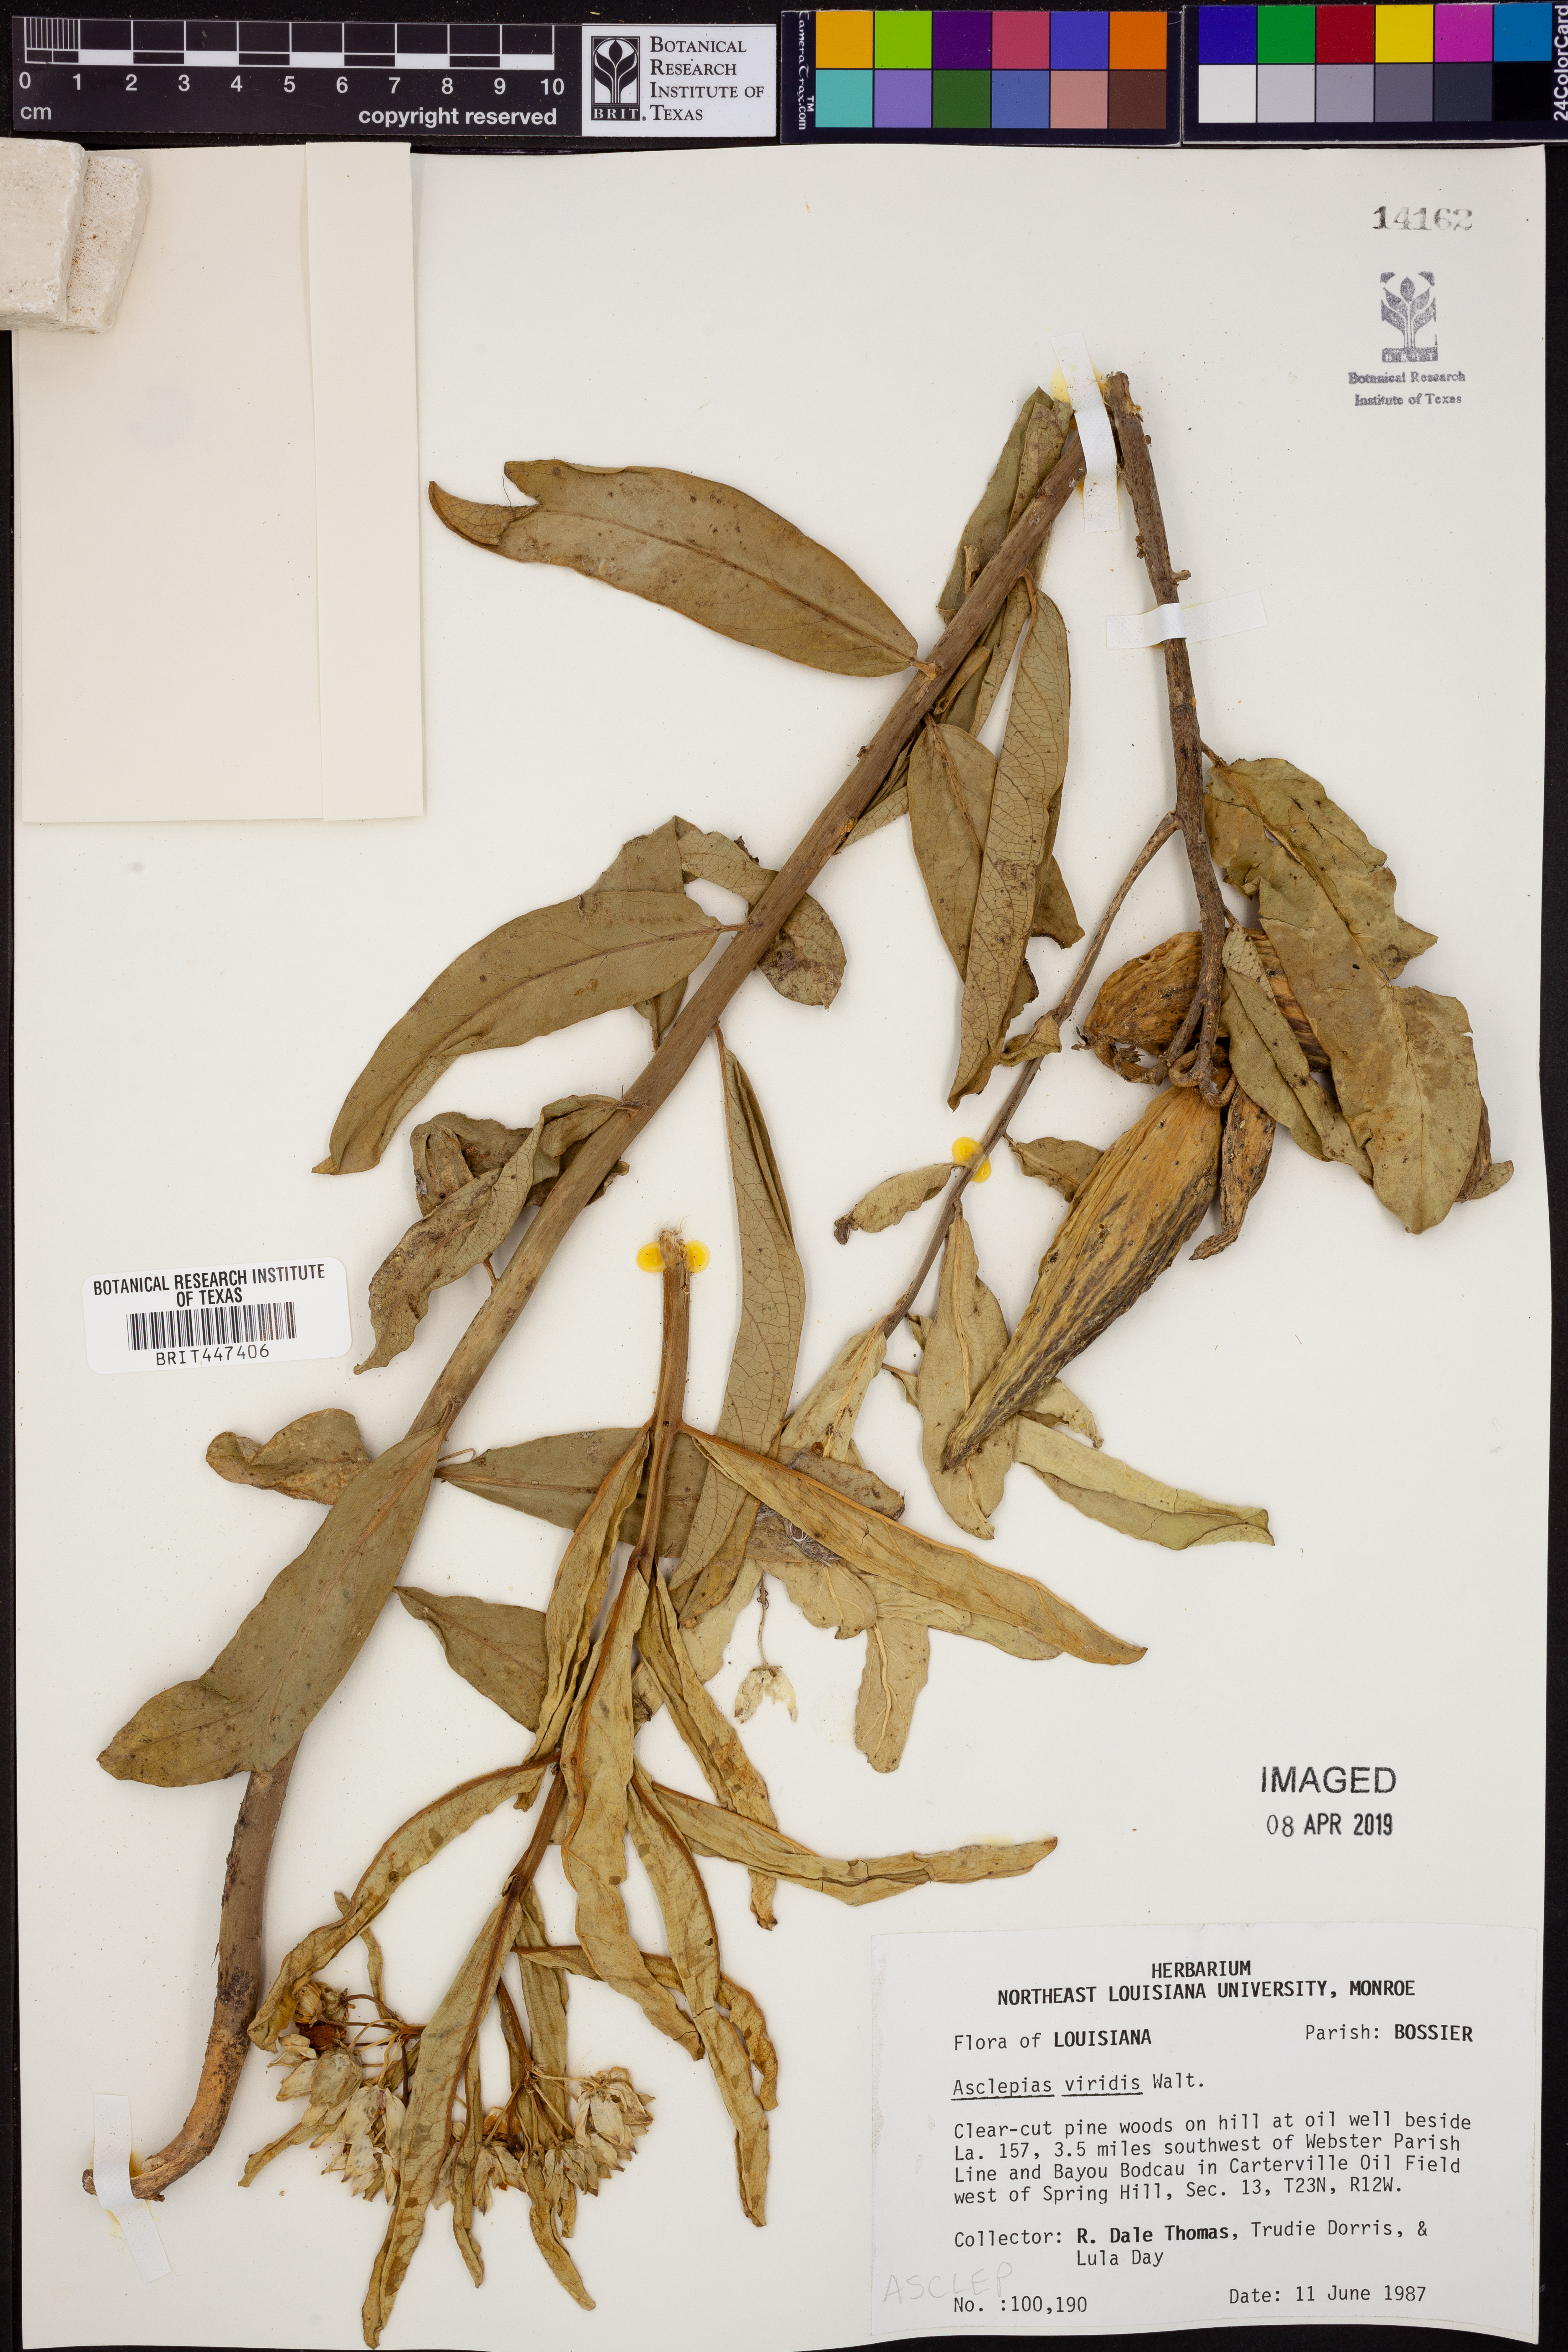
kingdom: Plantae
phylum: Tracheophyta
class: Magnoliopsida
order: Gentianales
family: Apocynaceae
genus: Asclepias
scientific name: Asclepias viridis
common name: Antelope-horns
